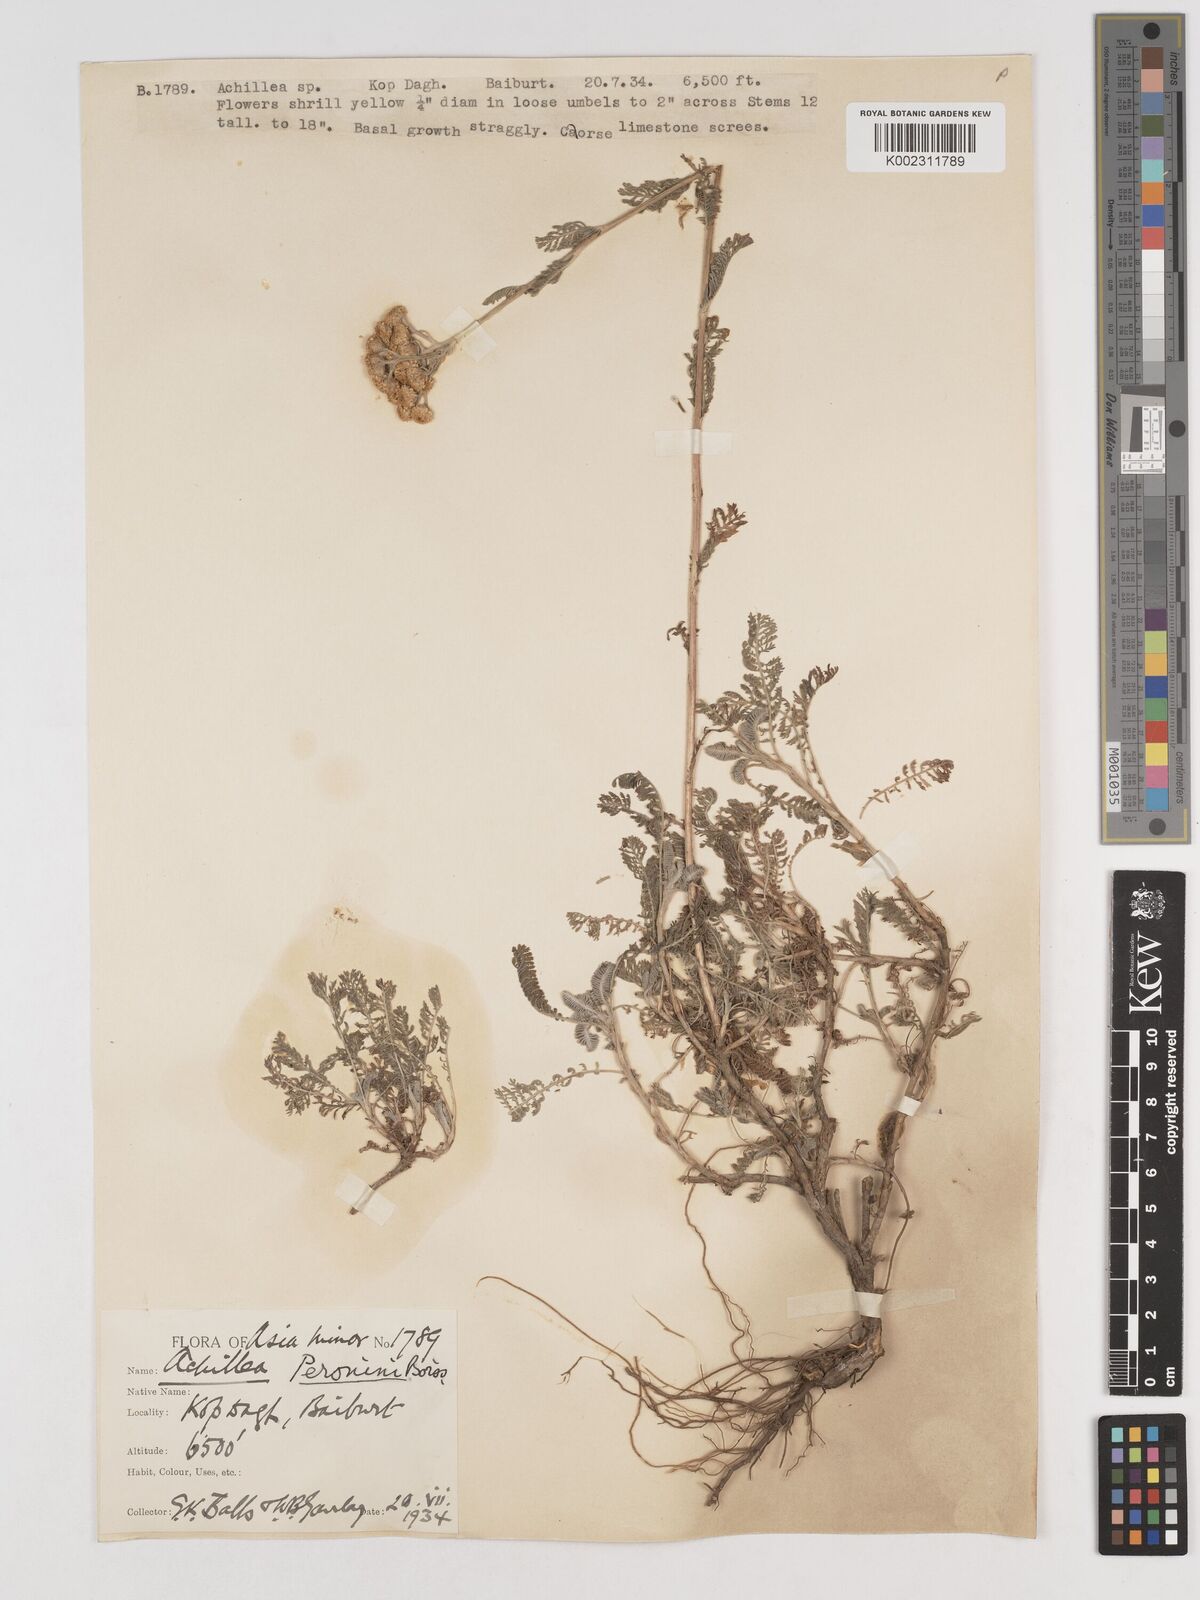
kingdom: Plantae
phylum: Tracheophyta
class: Magnoliopsida
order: Asterales
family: Asteraceae
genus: Tanacetum
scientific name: Tanacetum cadmeum
